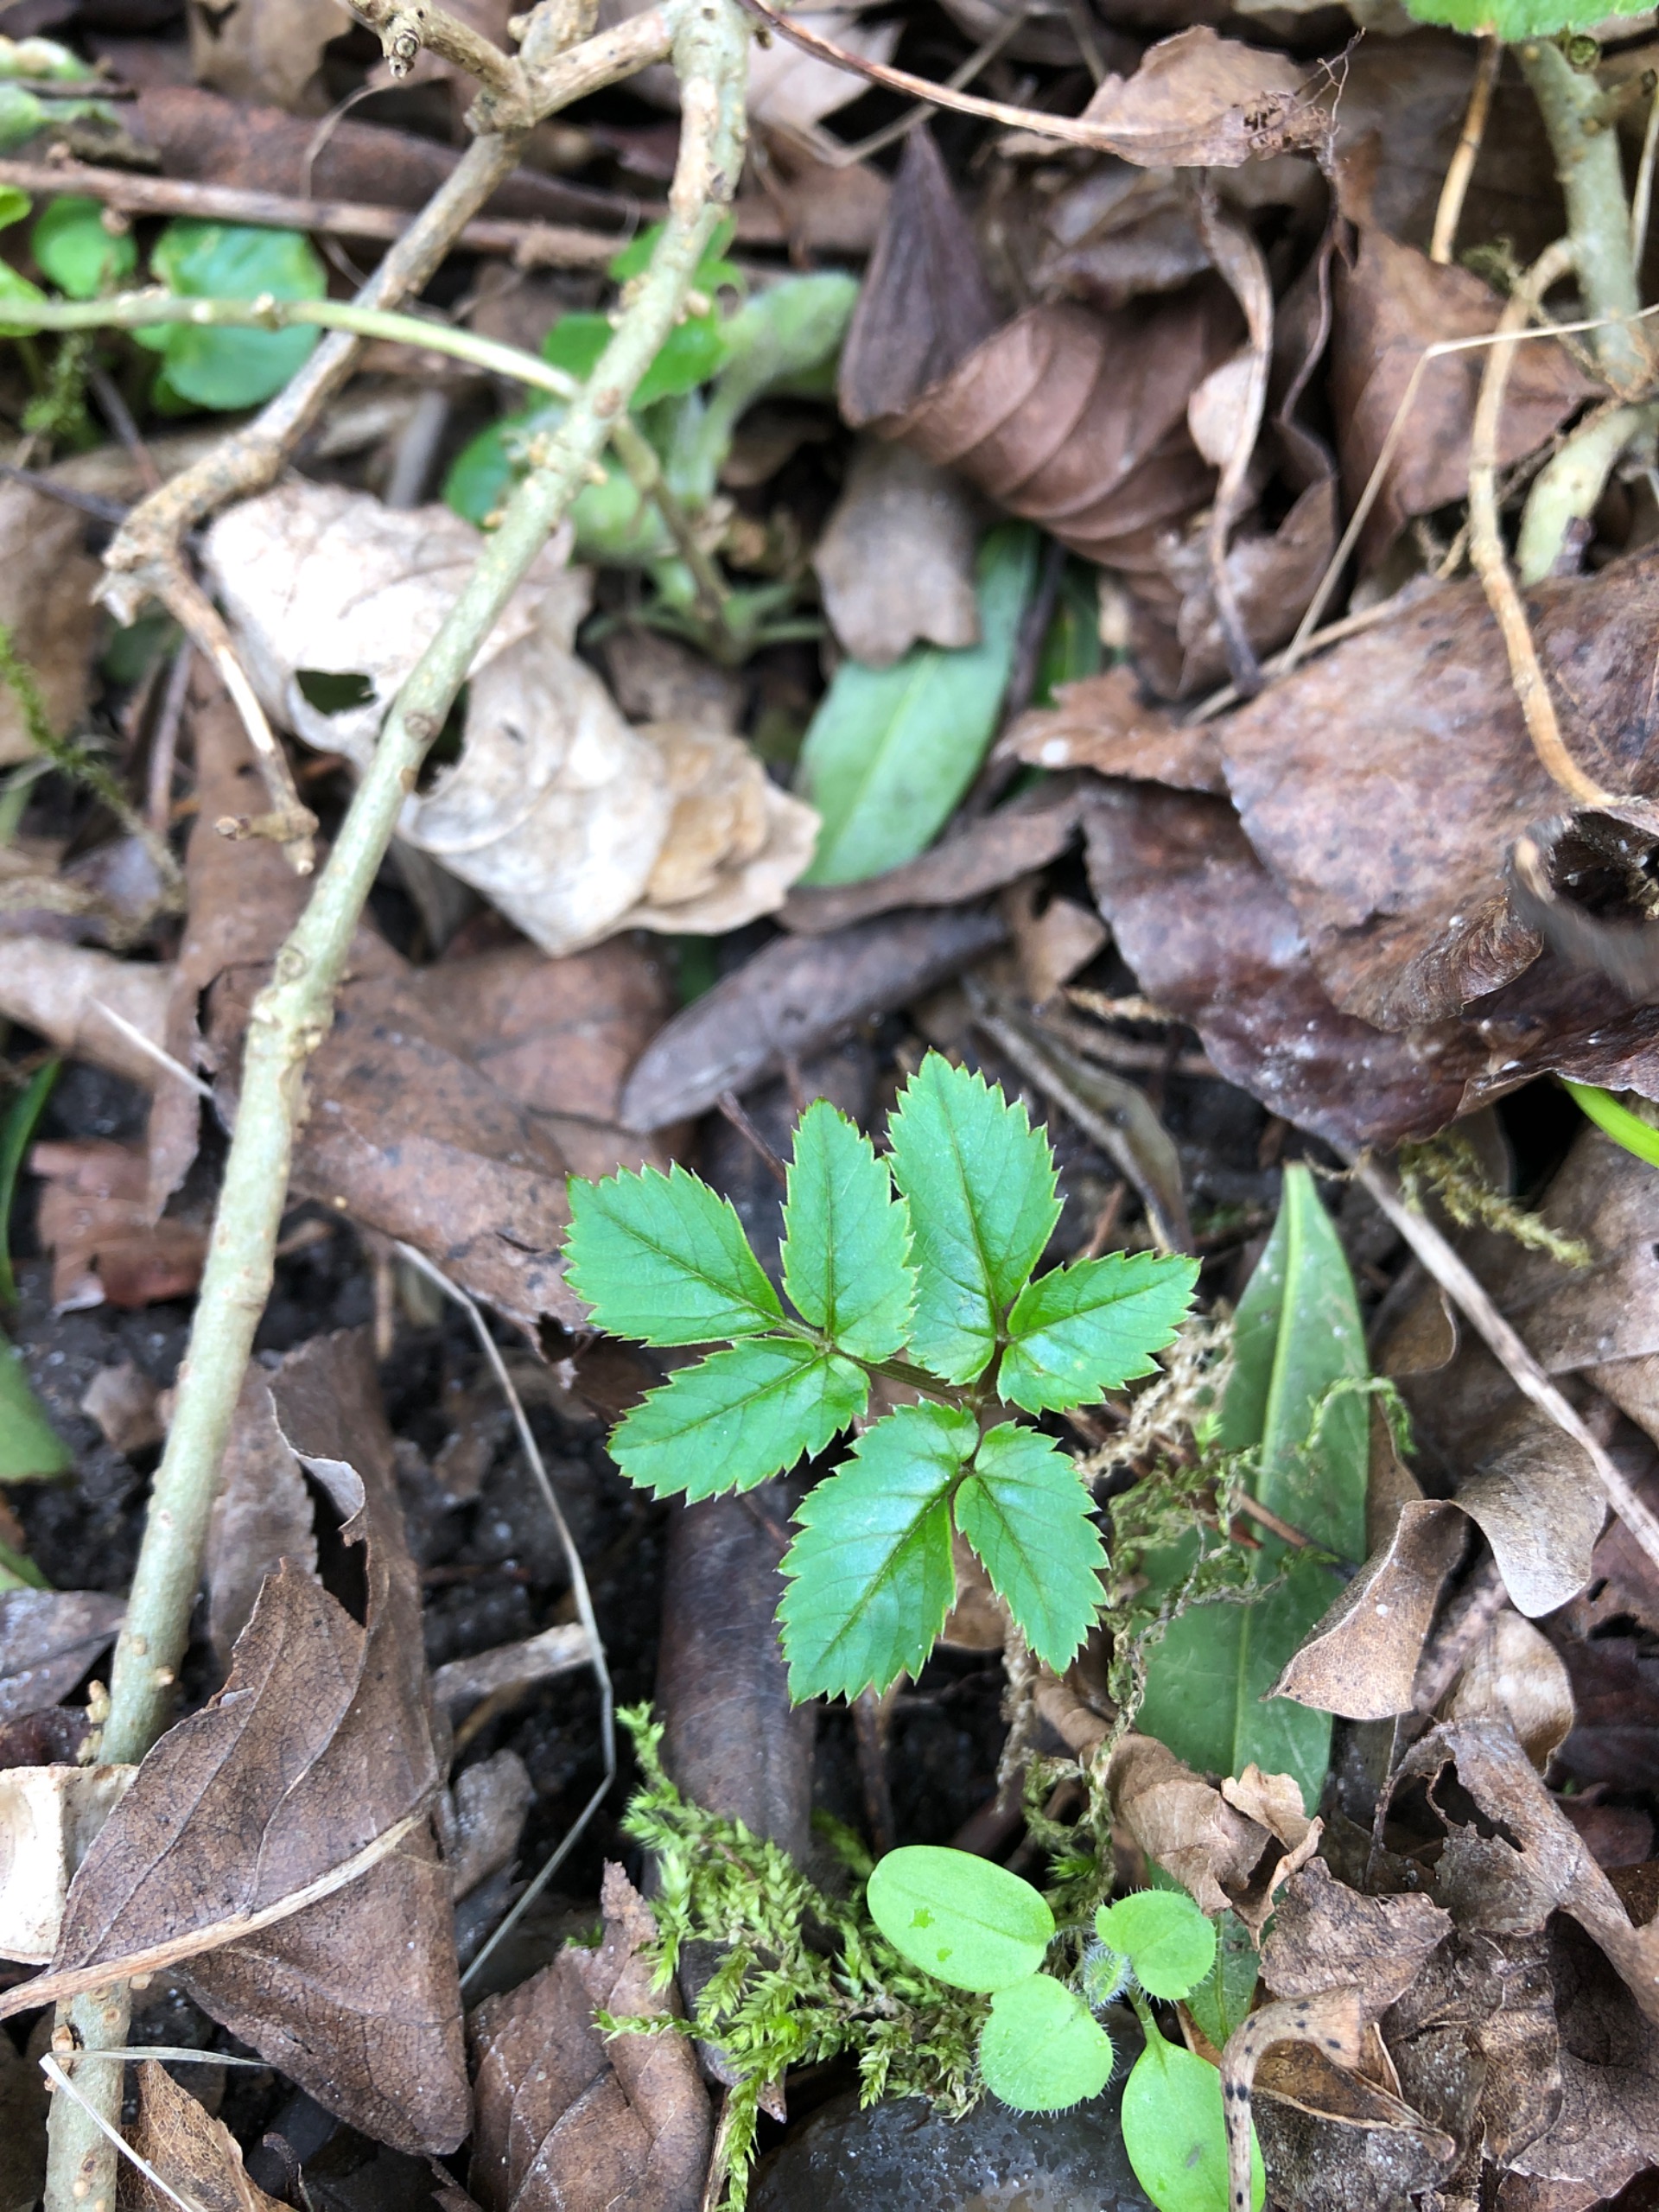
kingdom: Plantae
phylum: Tracheophyta
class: Magnoliopsida
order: Apiales
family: Apiaceae
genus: Aegopodium
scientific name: Aegopodium podagraria
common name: Skvalderkål
